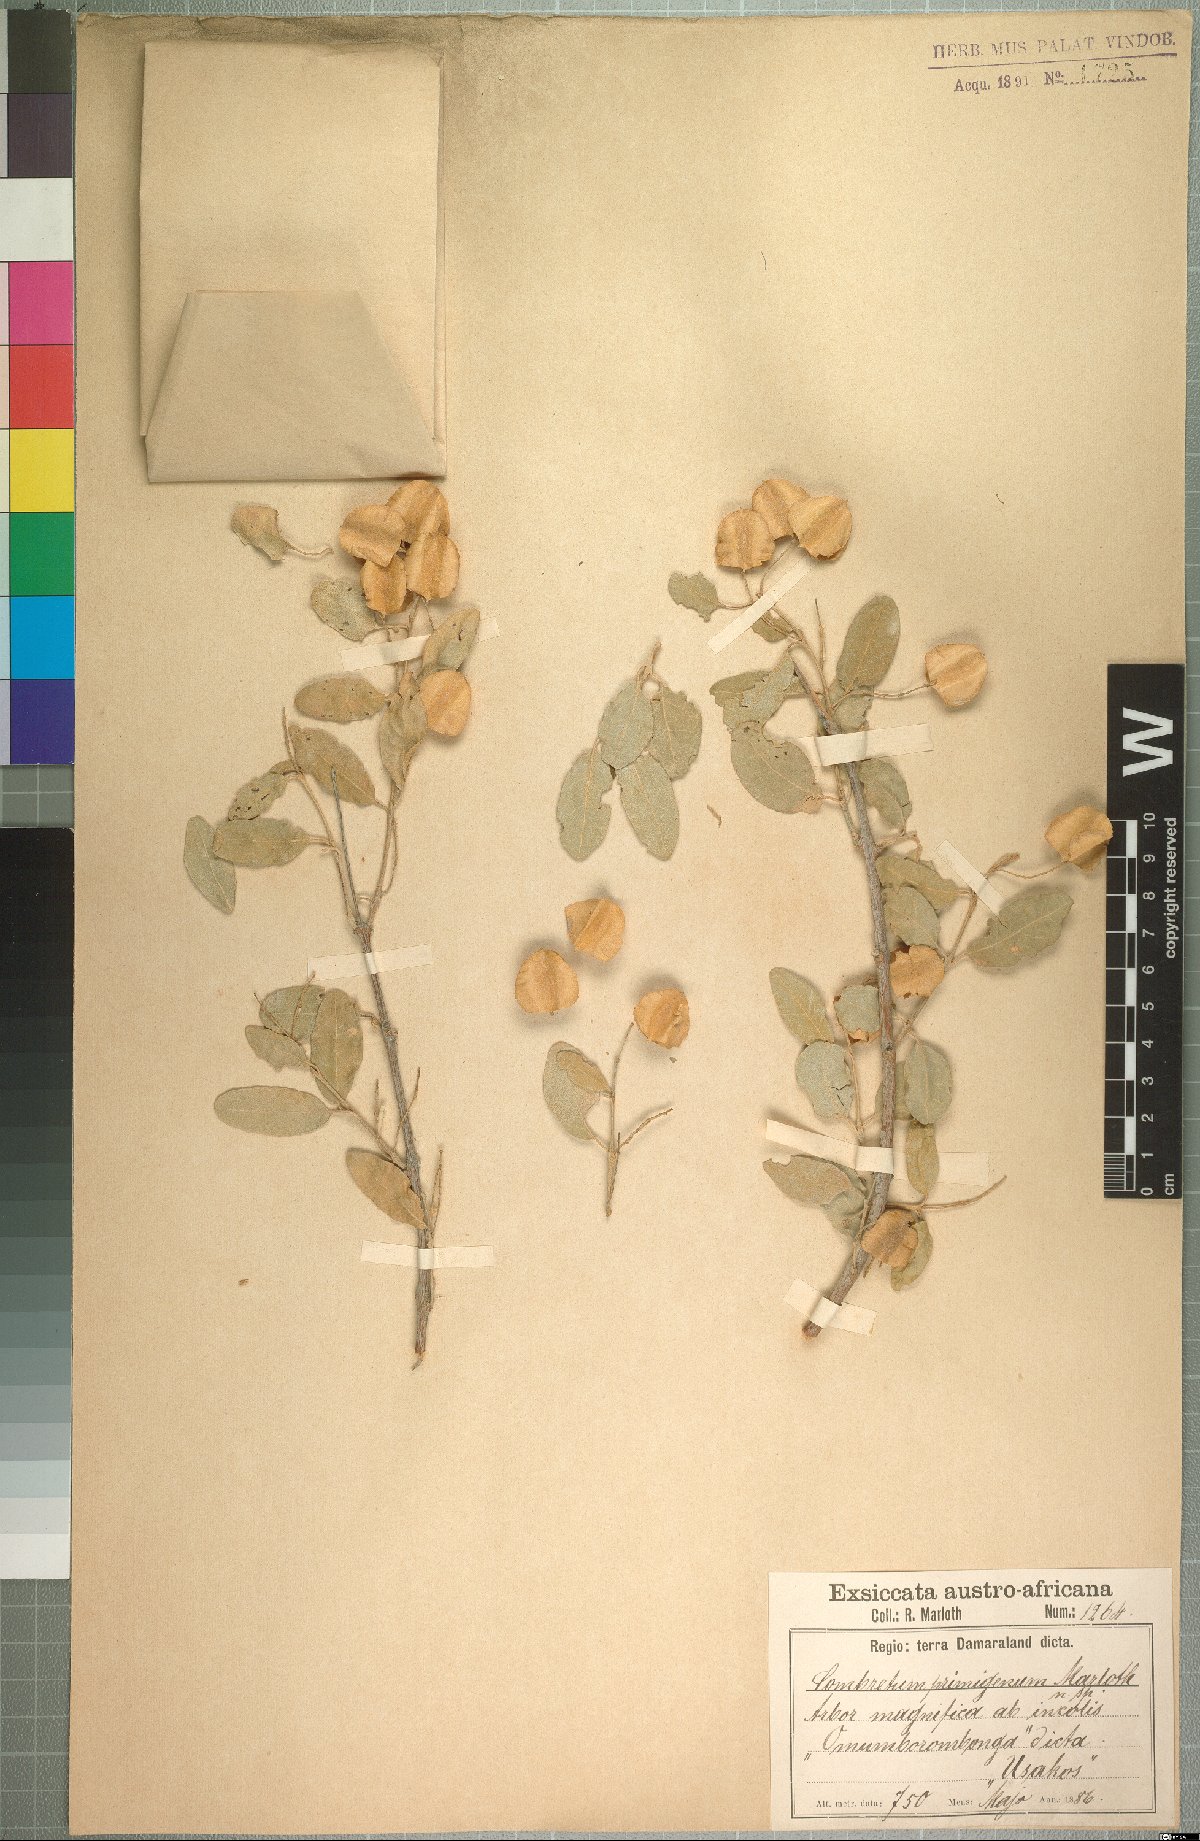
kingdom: Plantae
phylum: Tracheophyta
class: Magnoliopsida
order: Myrtales
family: Combretaceae
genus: Combretum
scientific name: Combretum imberbe
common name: Leadwood
